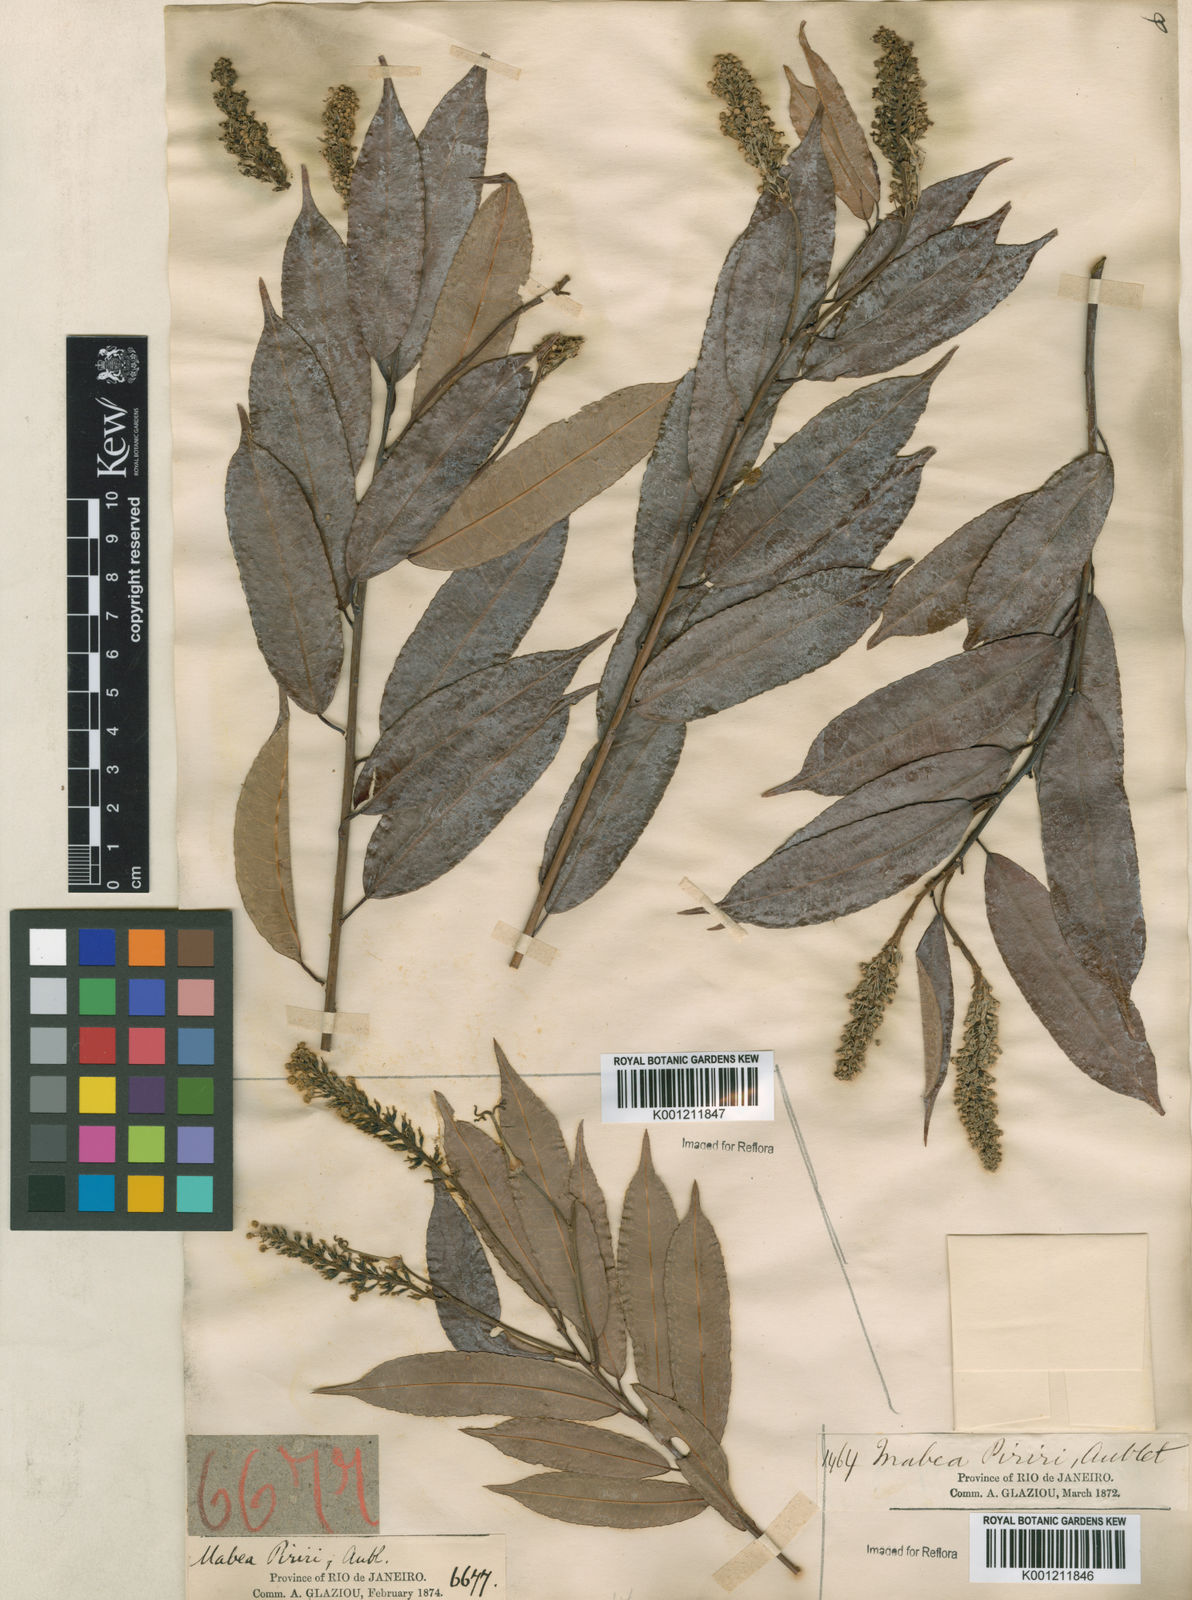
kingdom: Plantae
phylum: Tracheophyta
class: Magnoliopsida
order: Malpighiales
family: Euphorbiaceae
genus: Mabea
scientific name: Mabea piriri
